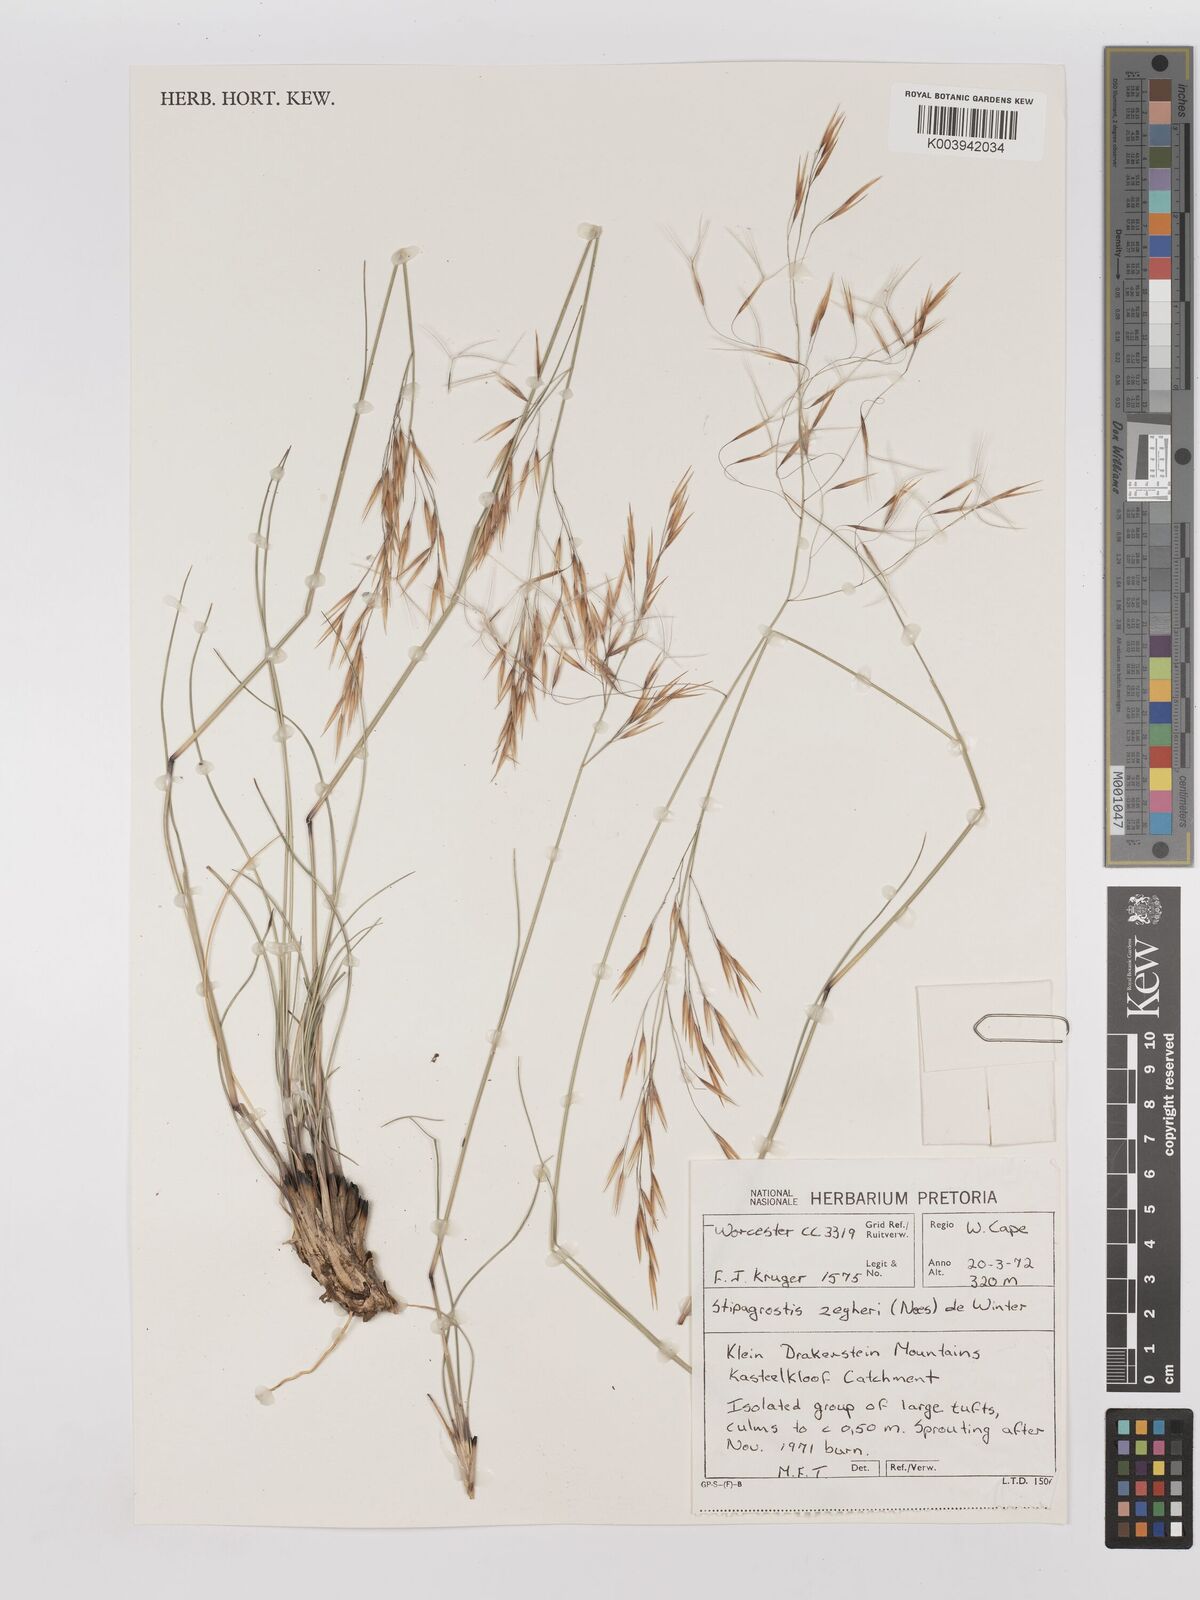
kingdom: Plantae
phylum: Tracheophyta
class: Liliopsida
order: Poales
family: Poaceae
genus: Stipagrostis
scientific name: Stipagrostis zeyheri
